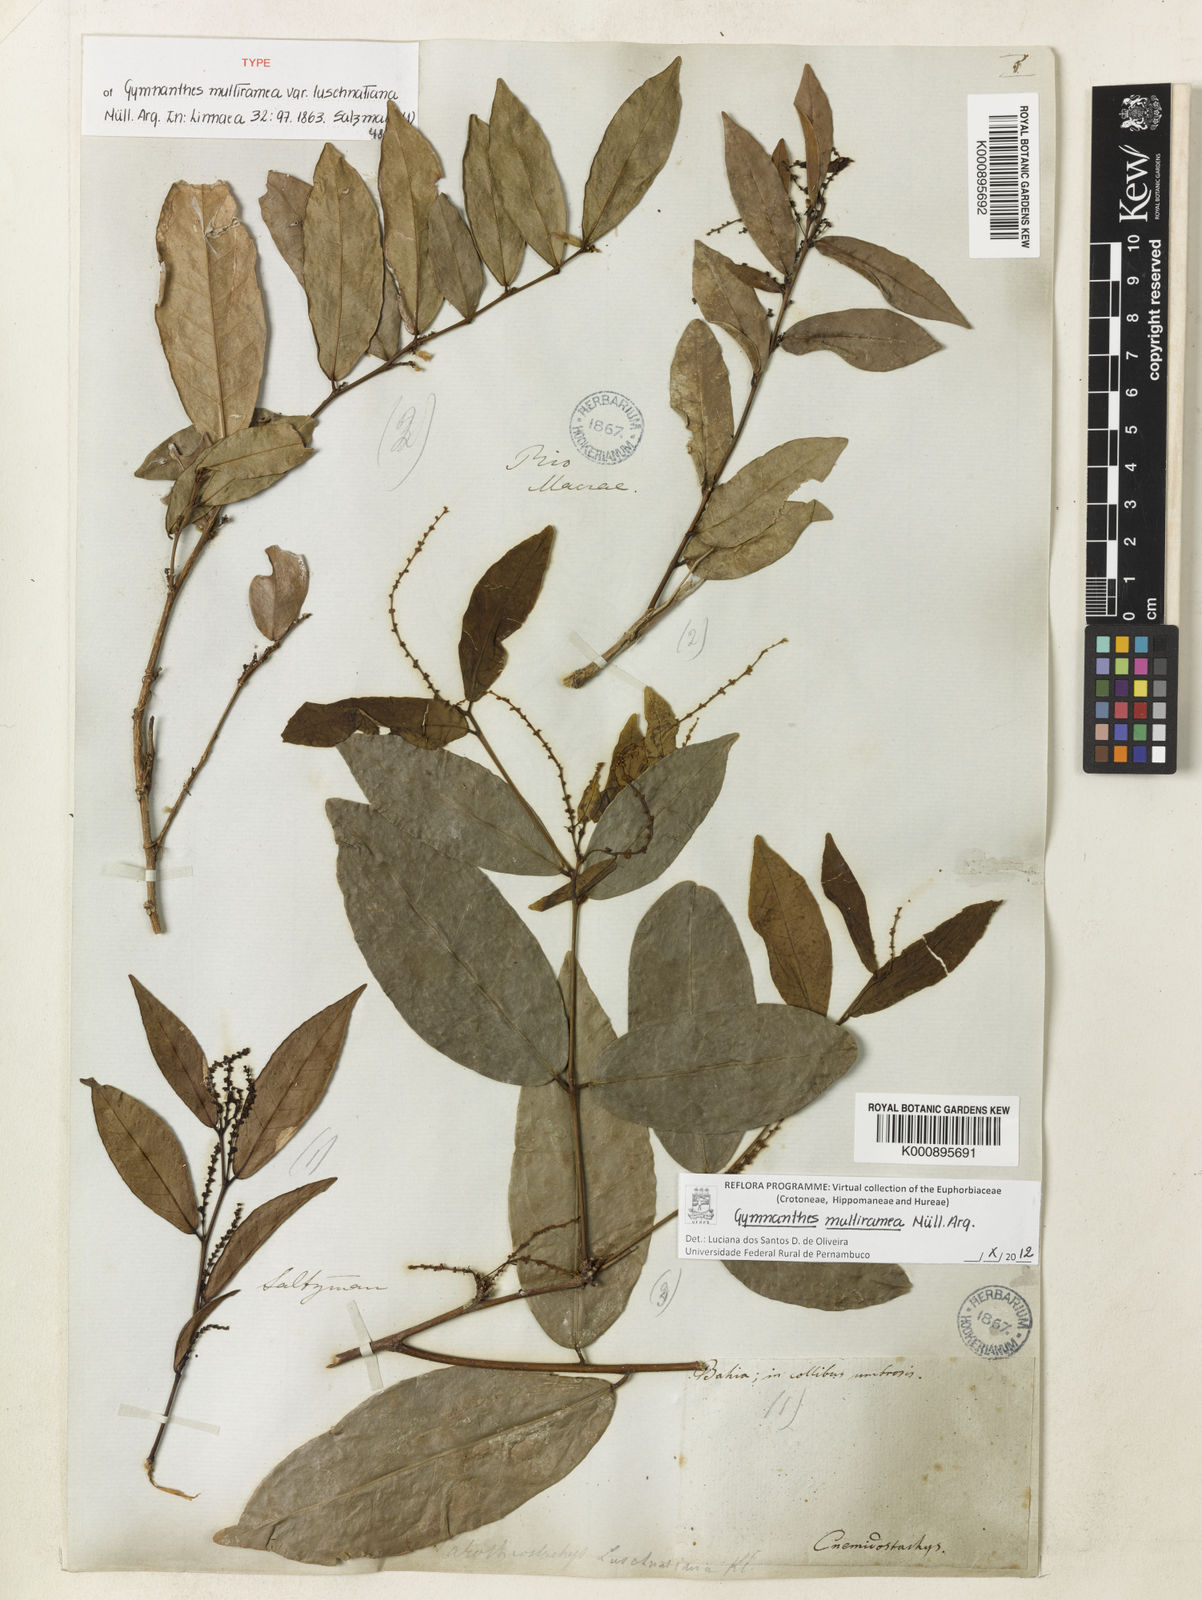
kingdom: Plantae
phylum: Tracheophyta
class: Magnoliopsida
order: Malpighiales
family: Euphorbiaceae
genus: Gymnanthes
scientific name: Gymnanthes
